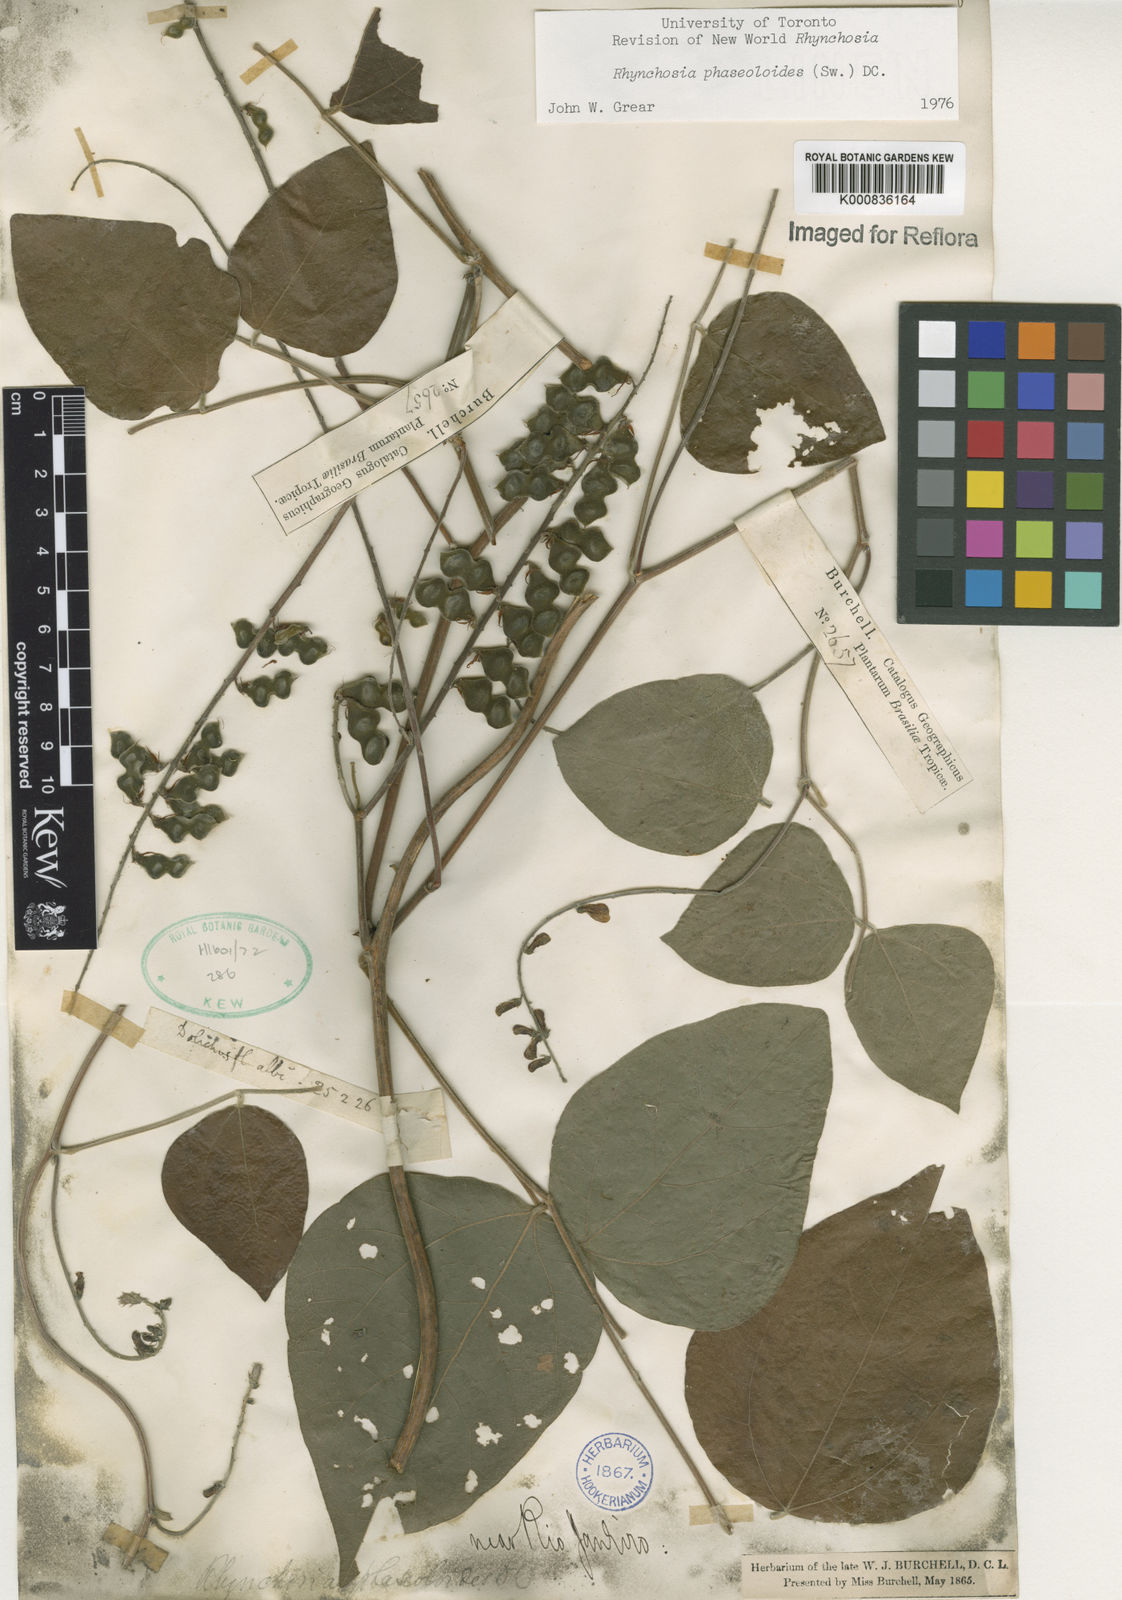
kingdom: Plantae
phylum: Tracheophyta
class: Magnoliopsida
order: Fabales
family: Fabaceae
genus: Rhynchosia
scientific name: Rhynchosia phaseoloides
